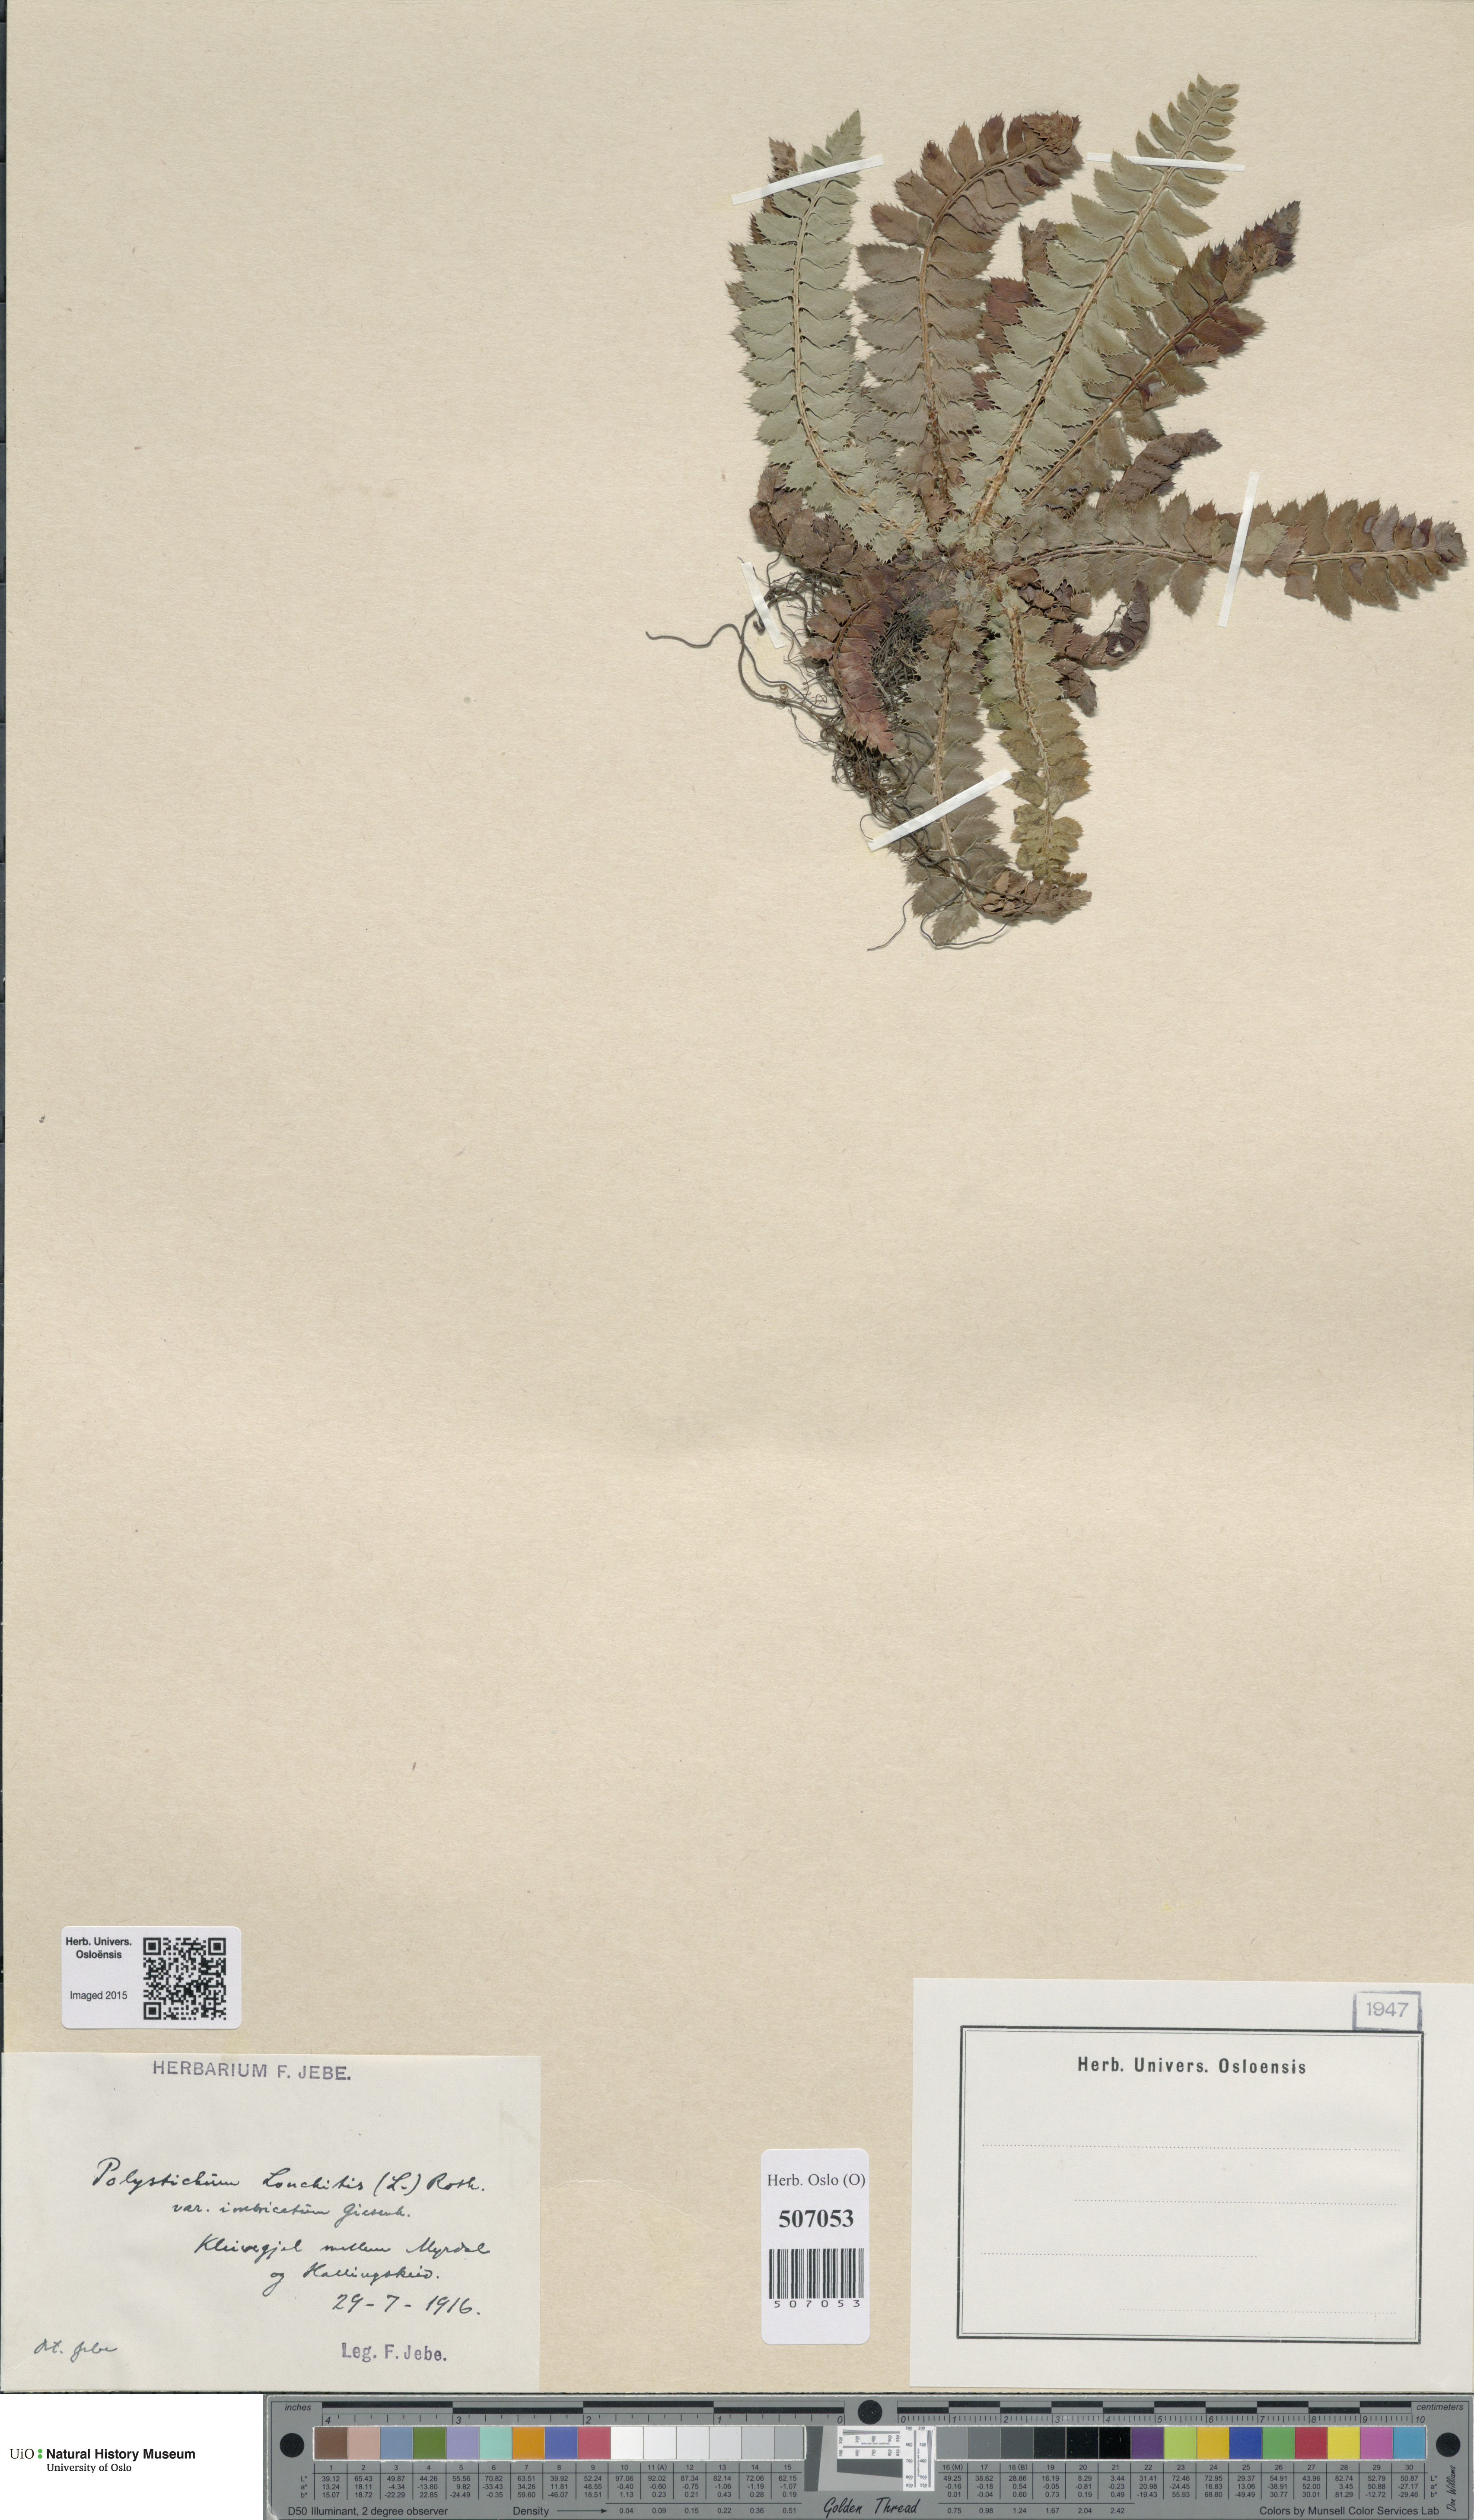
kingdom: Plantae
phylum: Tracheophyta
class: Polypodiopsida
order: Polypodiales
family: Dryopteridaceae
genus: Polystichum
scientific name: Polystichum lonchitis
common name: Holly fern
